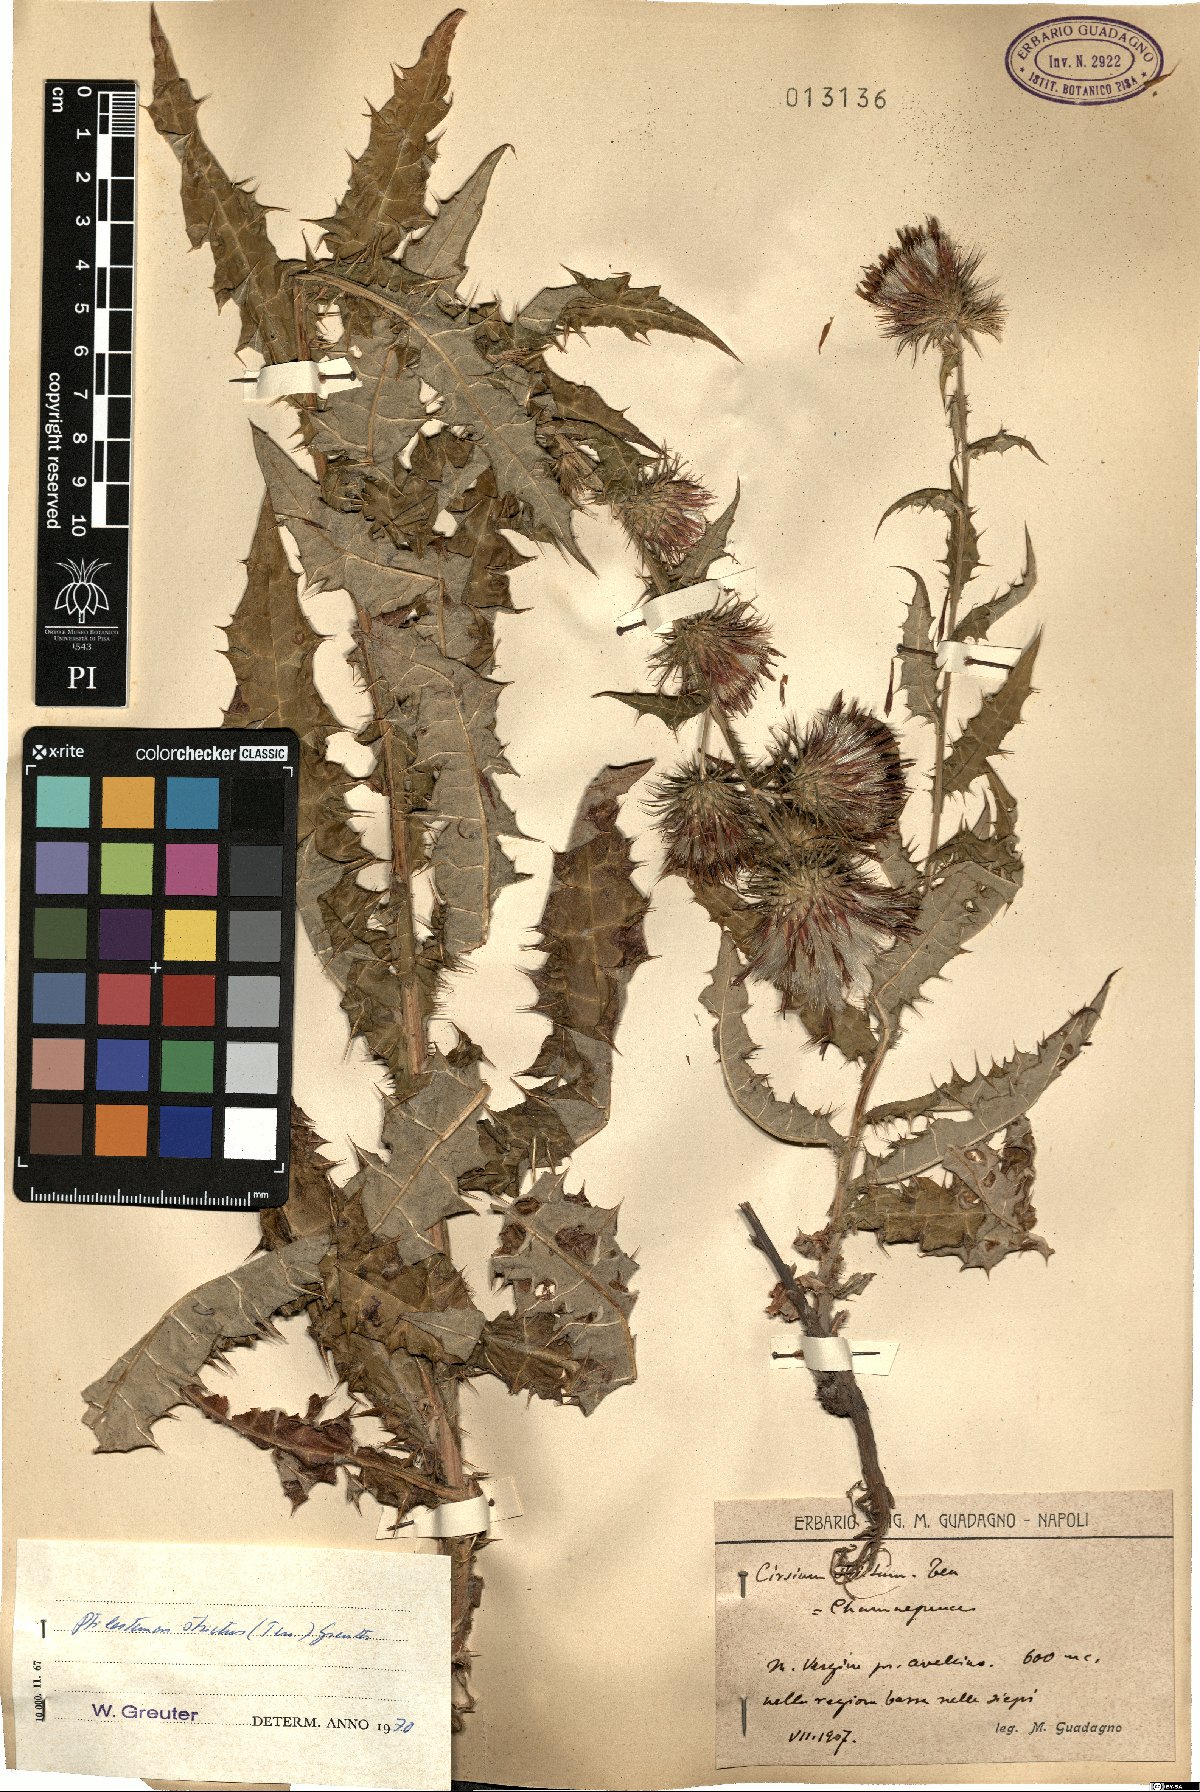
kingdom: Plantae
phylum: Tracheophyta
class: Magnoliopsida
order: Asterales
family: Asteraceae
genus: Ptilostemon
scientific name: Ptilostemon strictus
